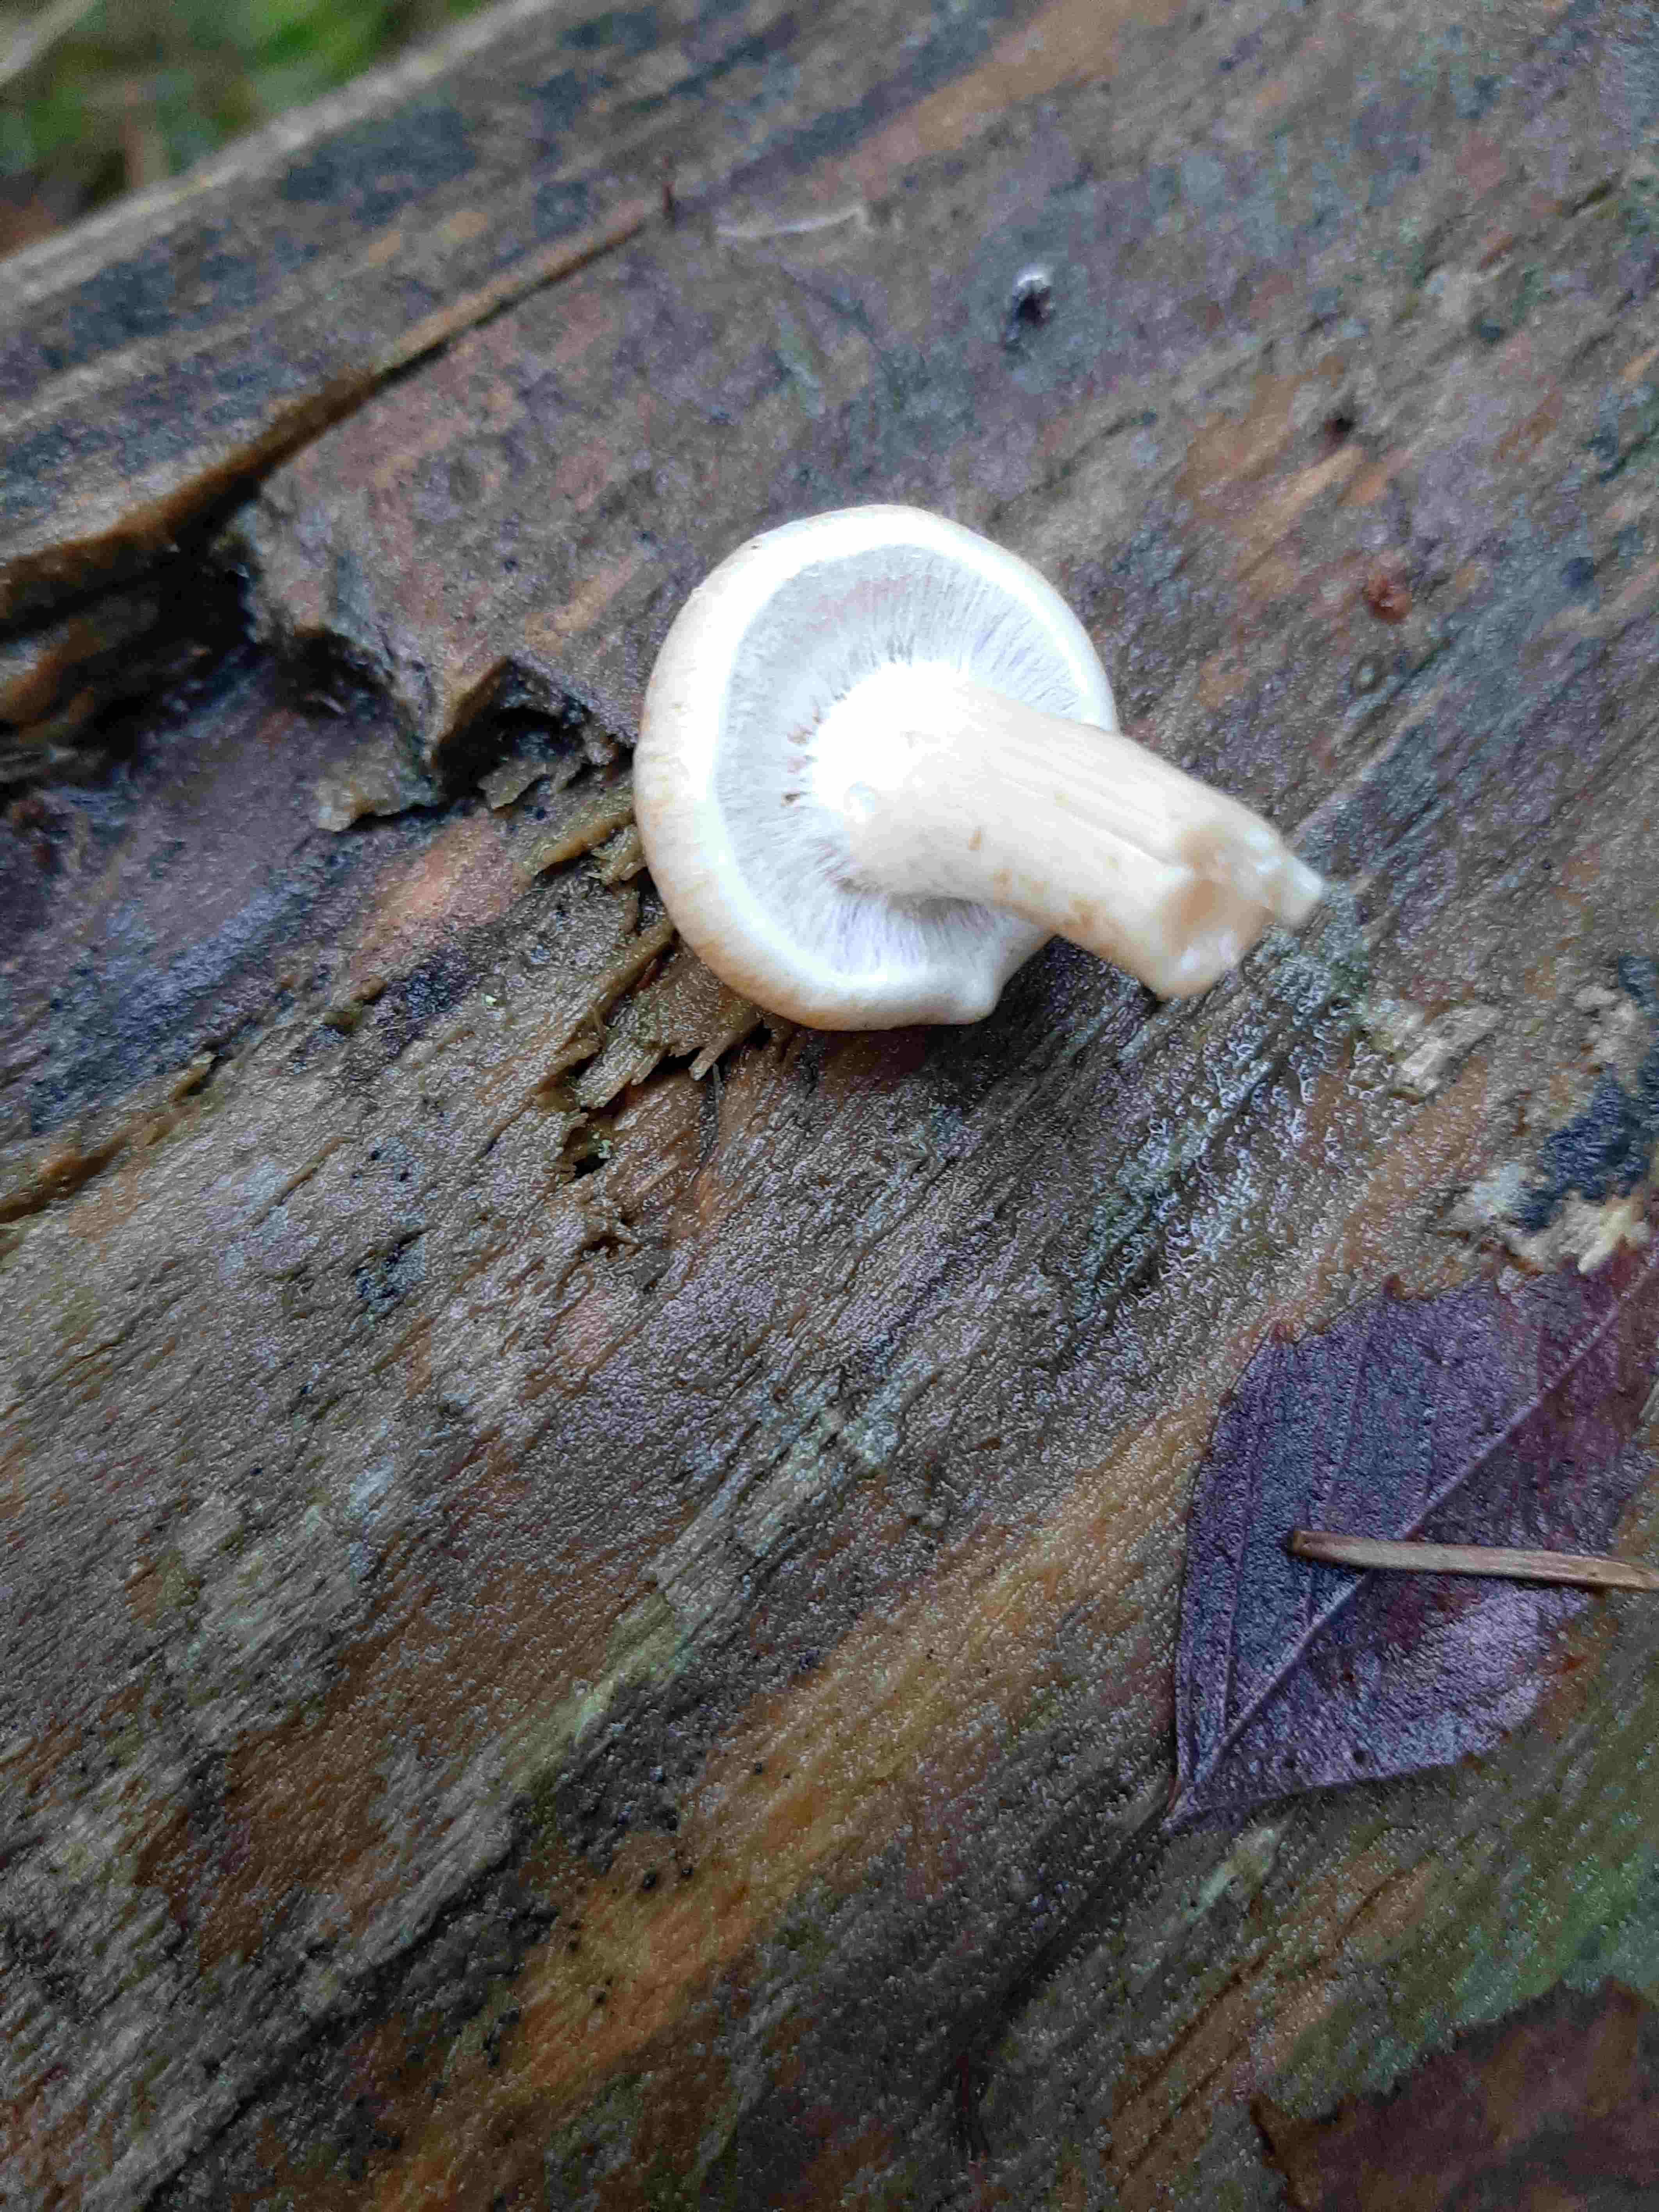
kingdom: Fungi
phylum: Basidiomycota
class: Agaricomycetes
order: Agaricales
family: Strophariaceae
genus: Hypholoma
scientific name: Hypholoma capnoides
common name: gran-svovlhat
